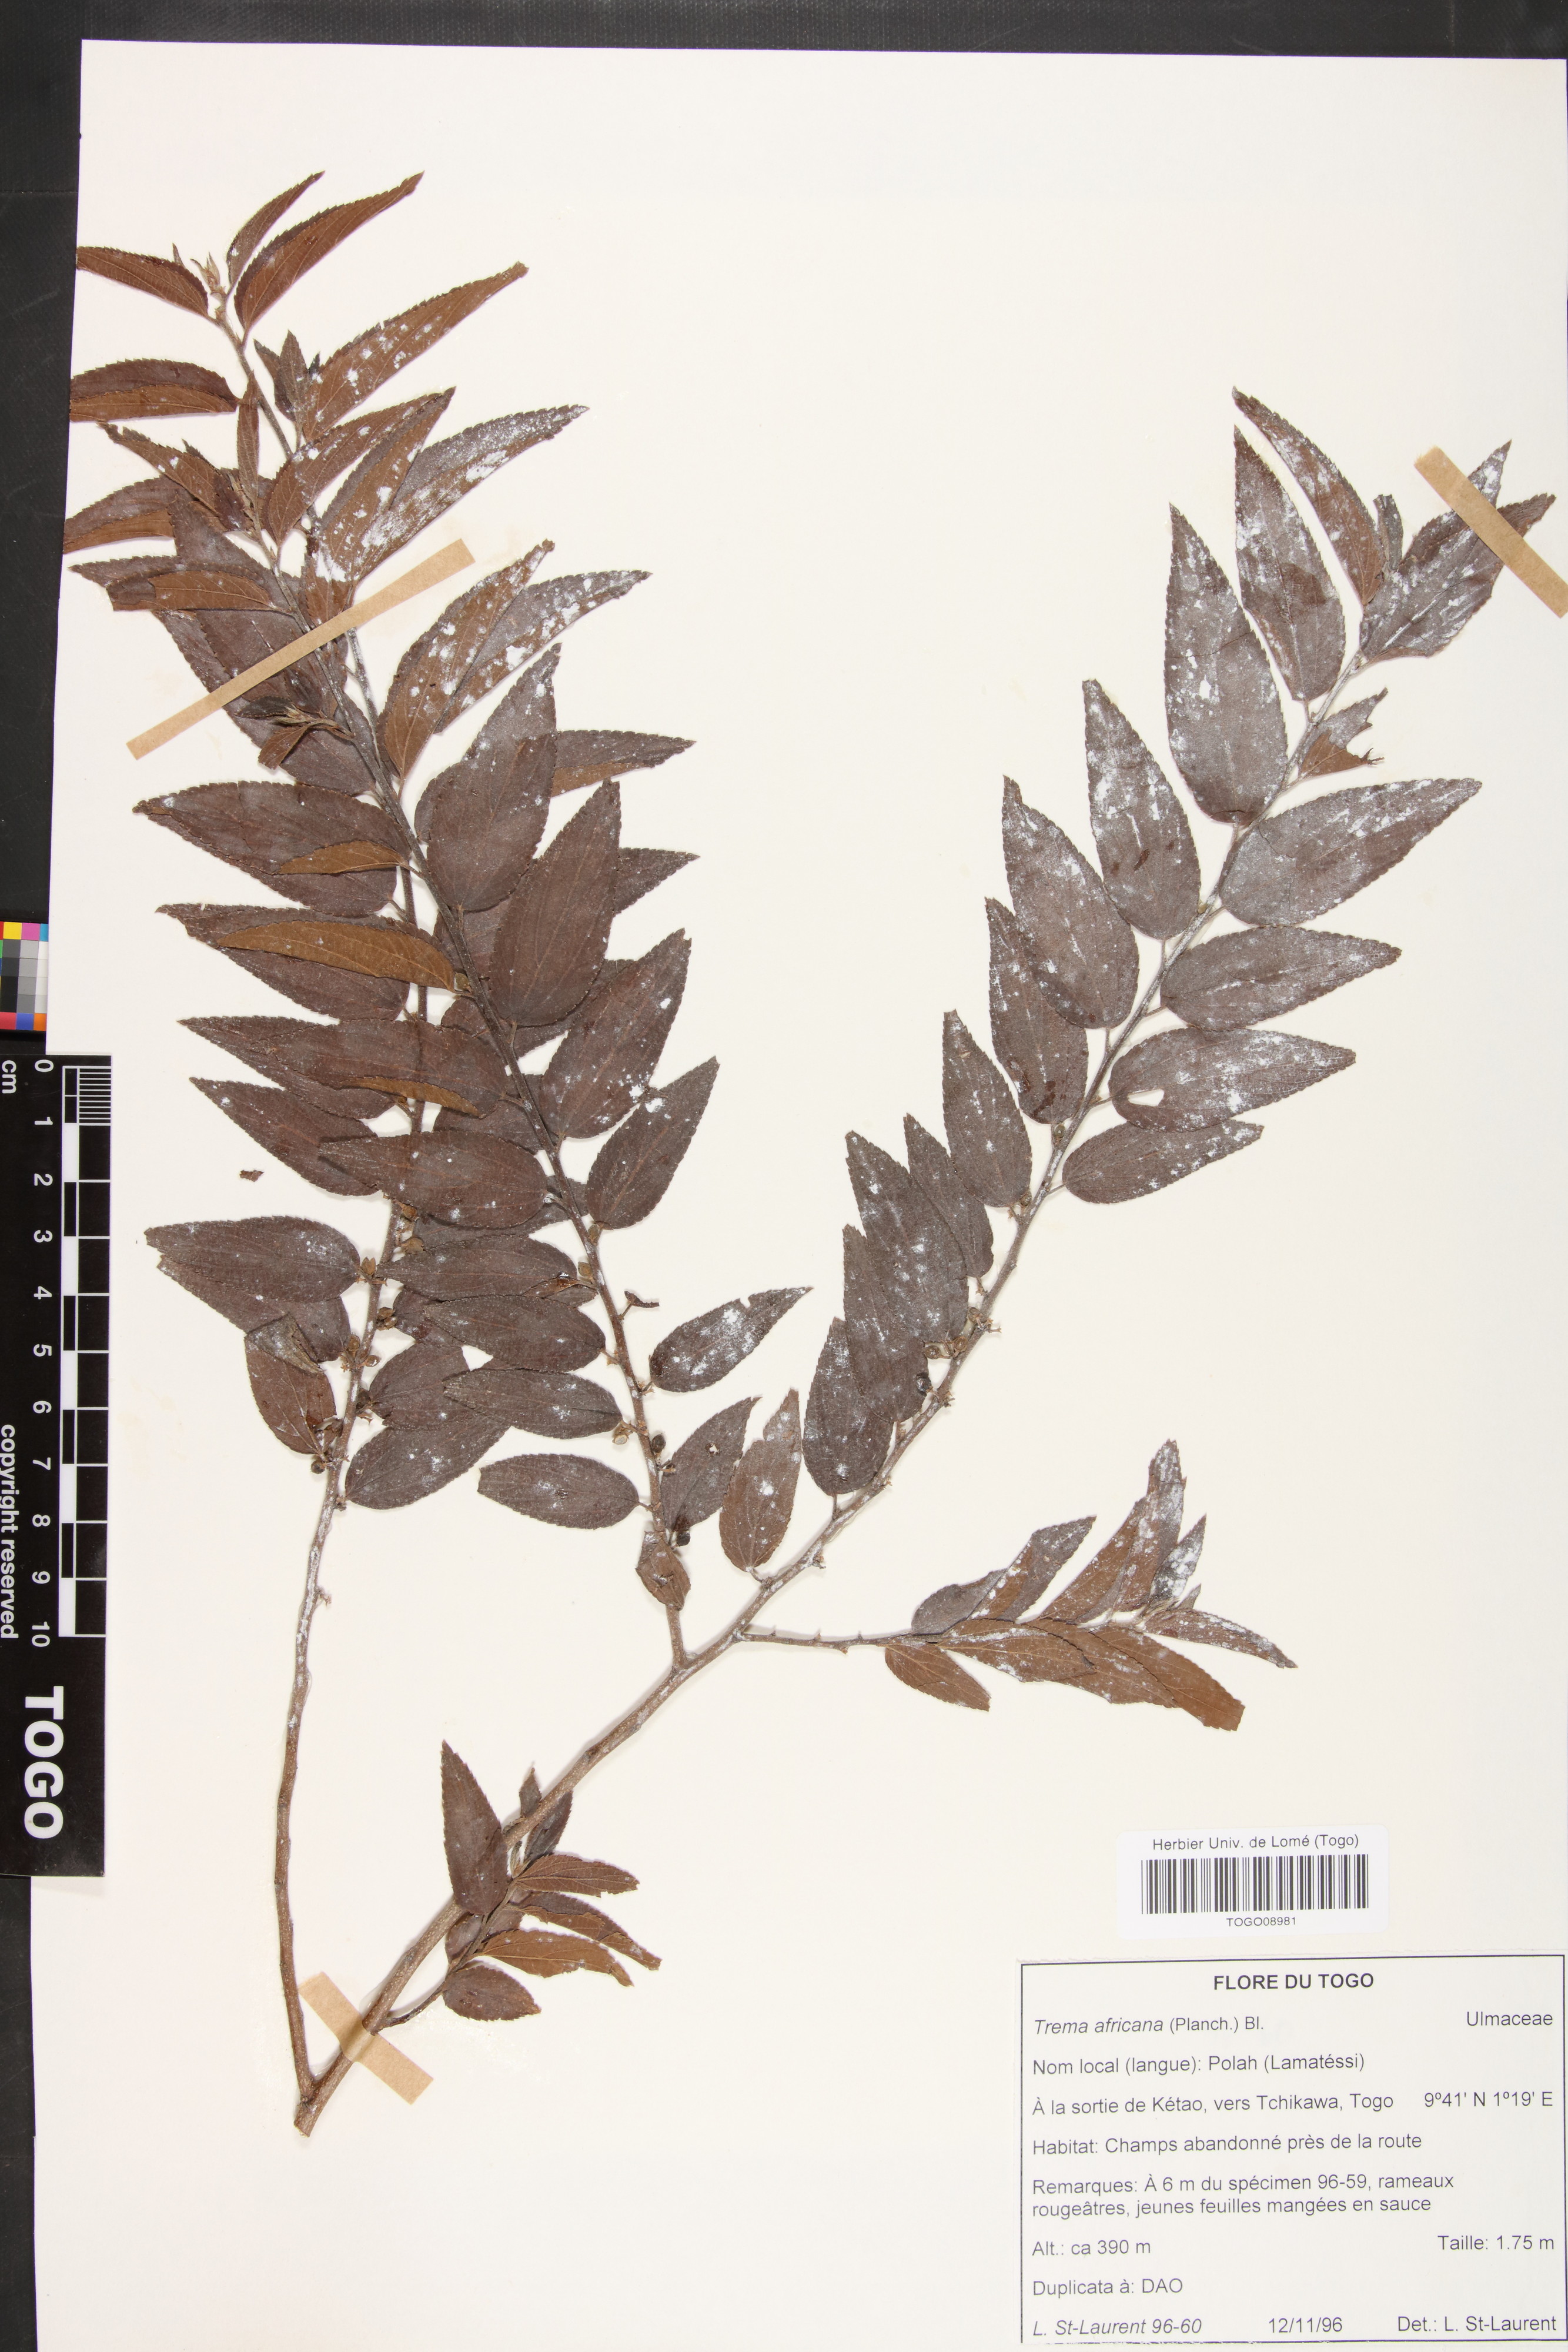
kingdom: Plantae
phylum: Tracheophyta
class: Magnoliopsida
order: Rosales
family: Cannabaceae
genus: Trema
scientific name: Trema orientale
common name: Indian charcoal tree
